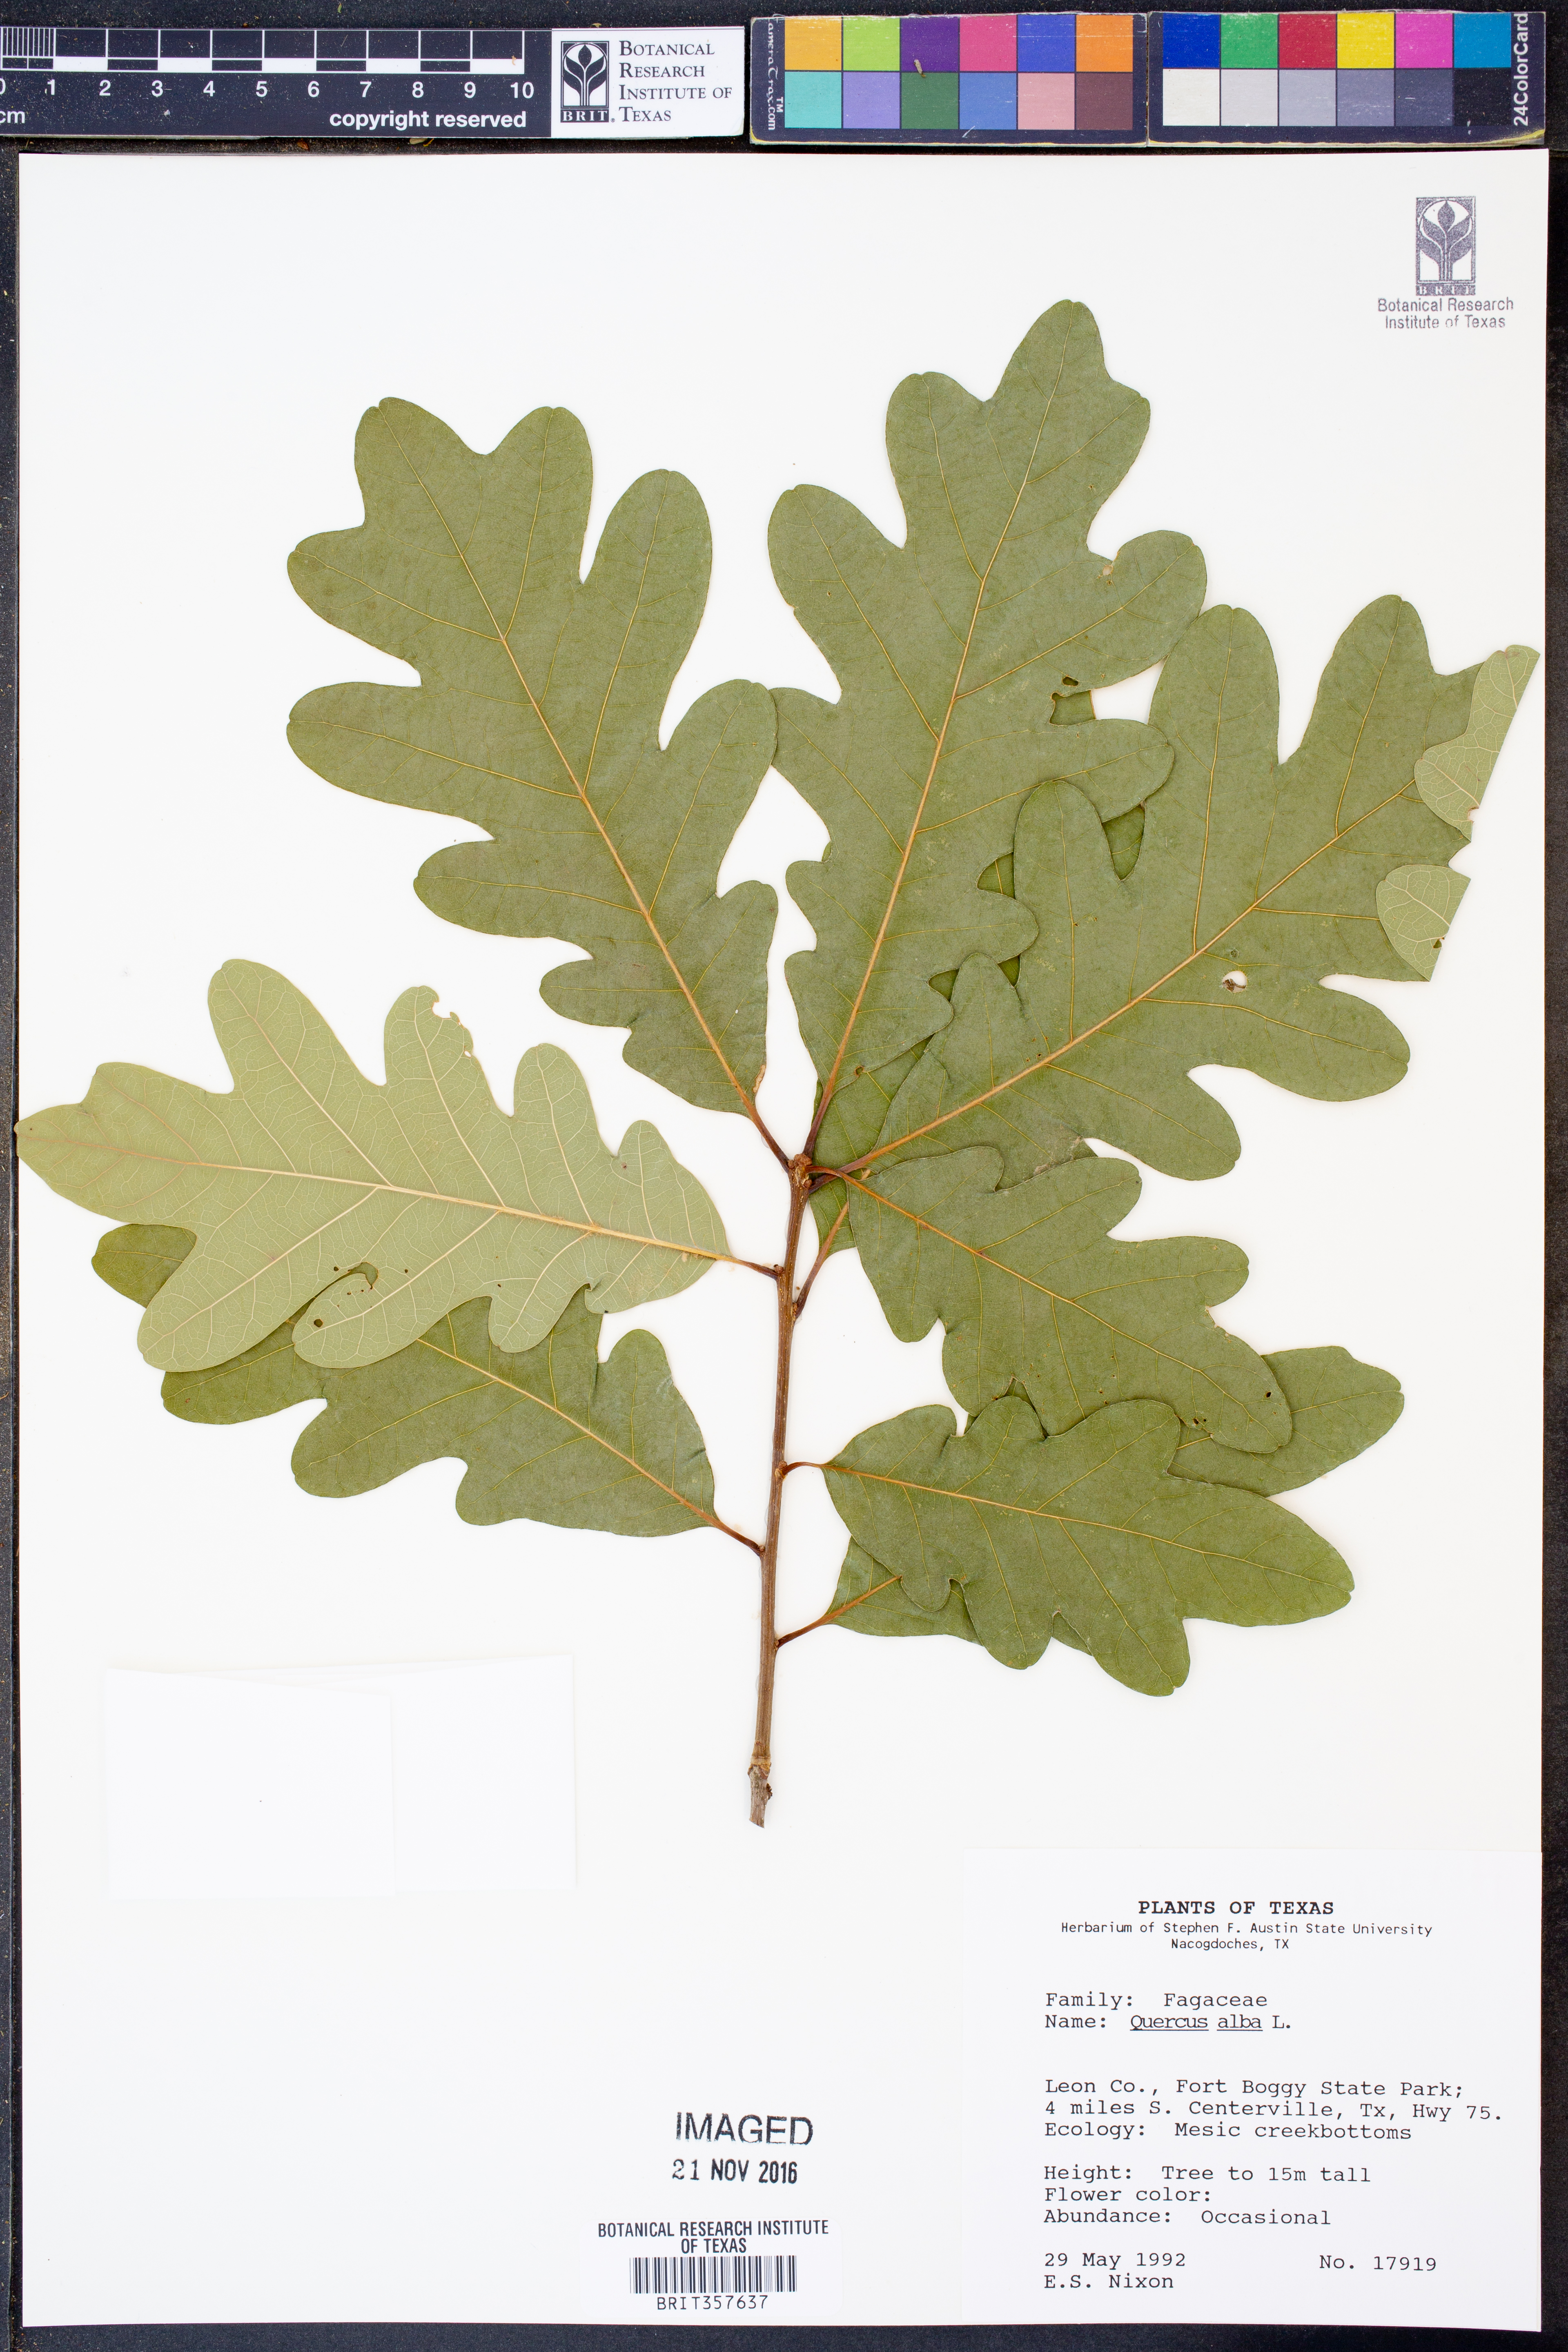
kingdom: Plantae
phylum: Tracheophyta
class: Magnoliopsida
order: Fagales
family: Fagaceae
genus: Quercus
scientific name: Quercus alba
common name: White oak
